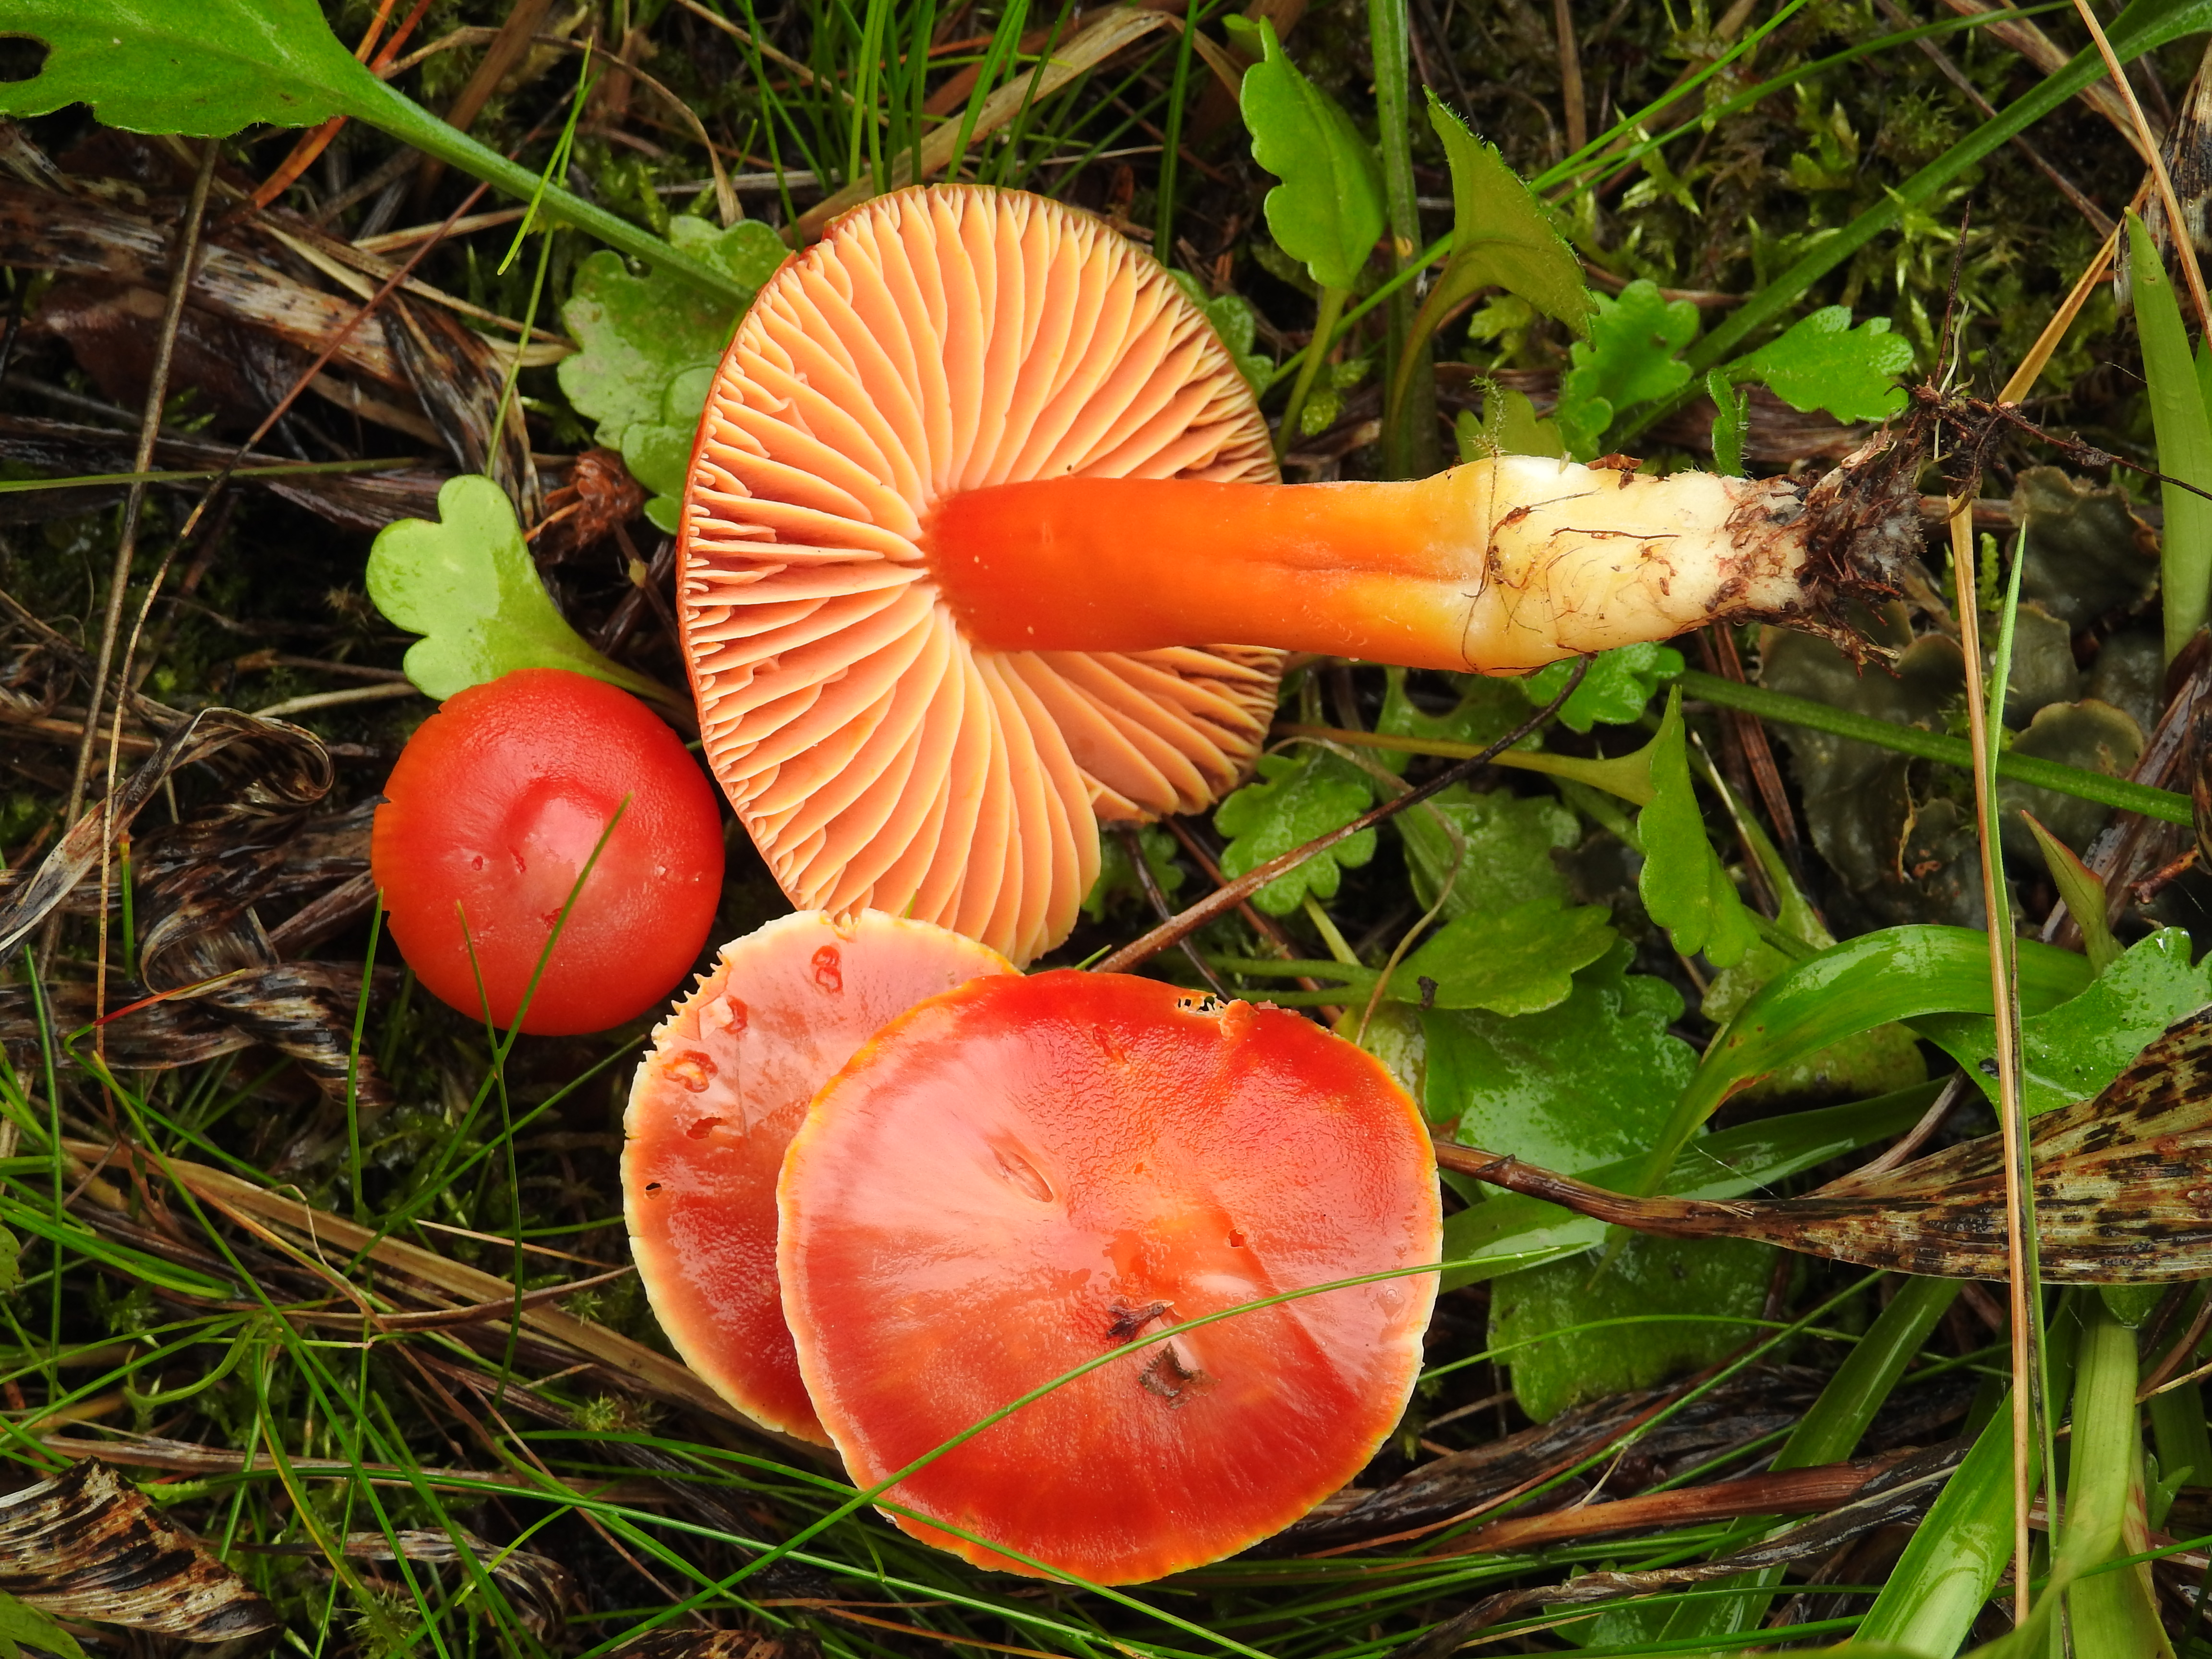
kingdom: Fungi
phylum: Basidiomycota
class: Agaricomycetes
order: Agaricales
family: Hygrophoraceae
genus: Hygrocybe
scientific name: Hygrocybe coccinea
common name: Scarlet hood
